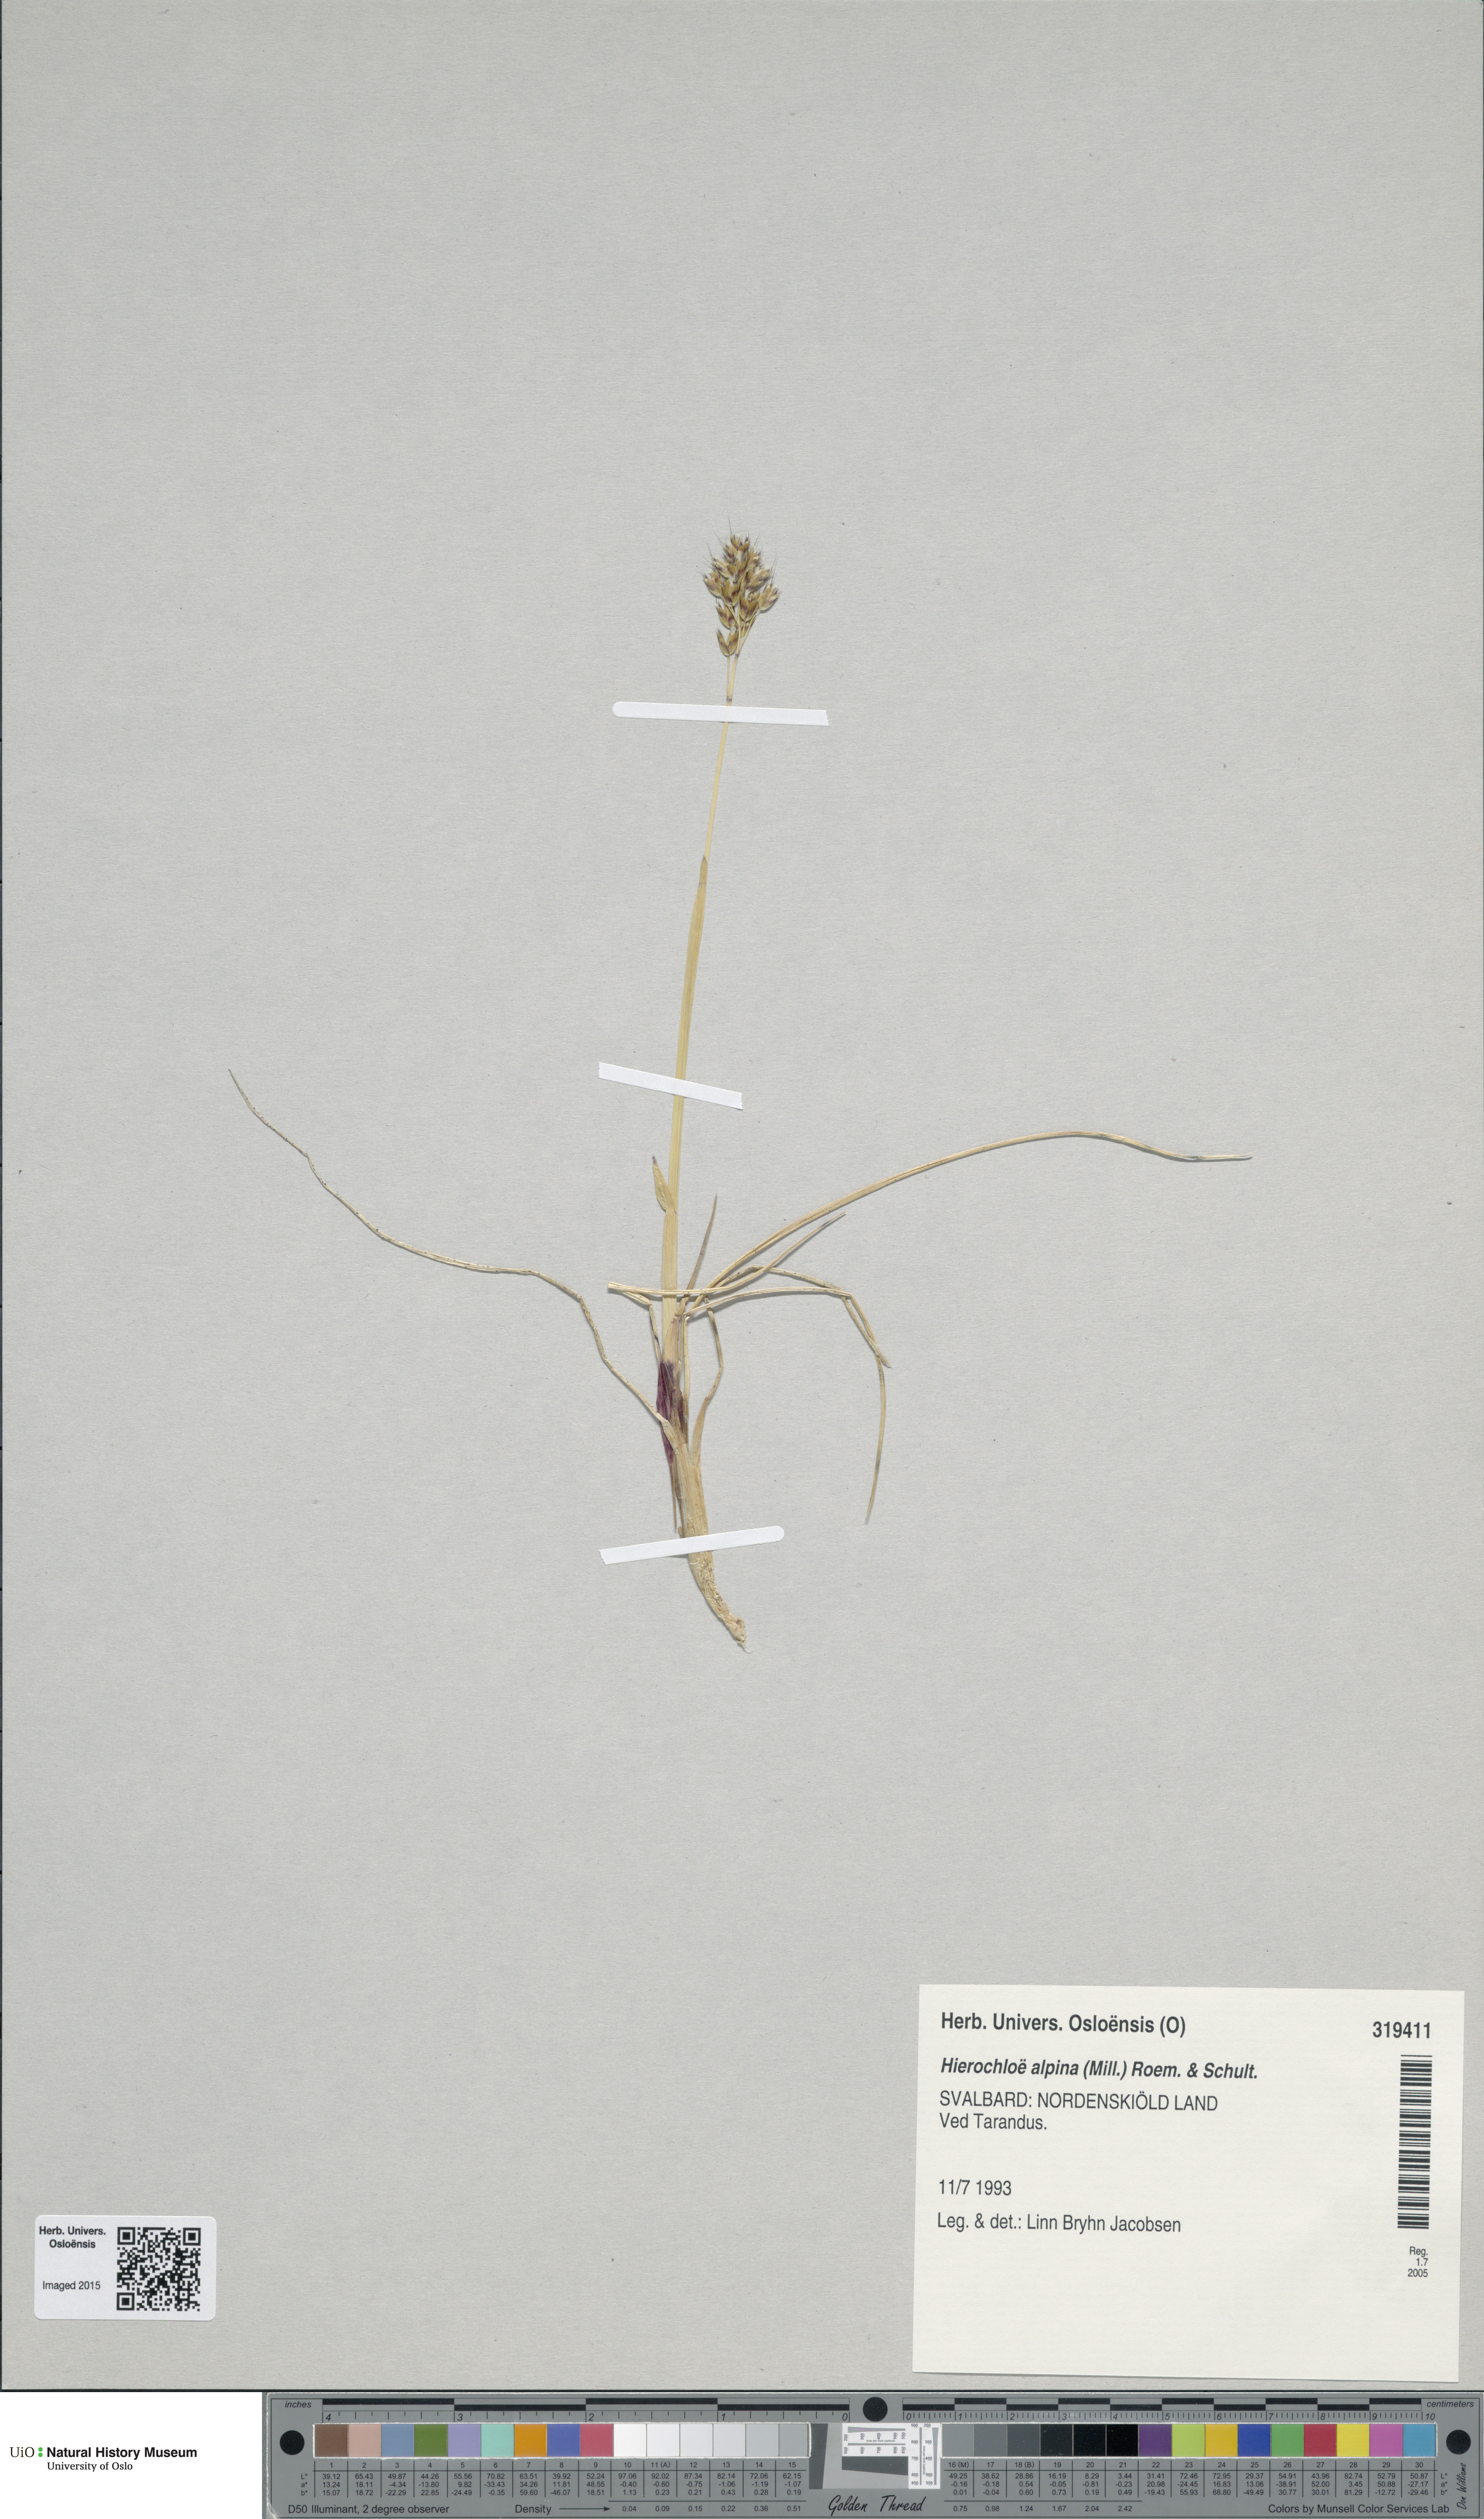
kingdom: Plantae
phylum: Tracheophyta
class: Liliopsida
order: Poales
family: Poaceae
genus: Anthoxanthum
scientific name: Anthoxanthum monticola
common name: Alpine sweetgrass
